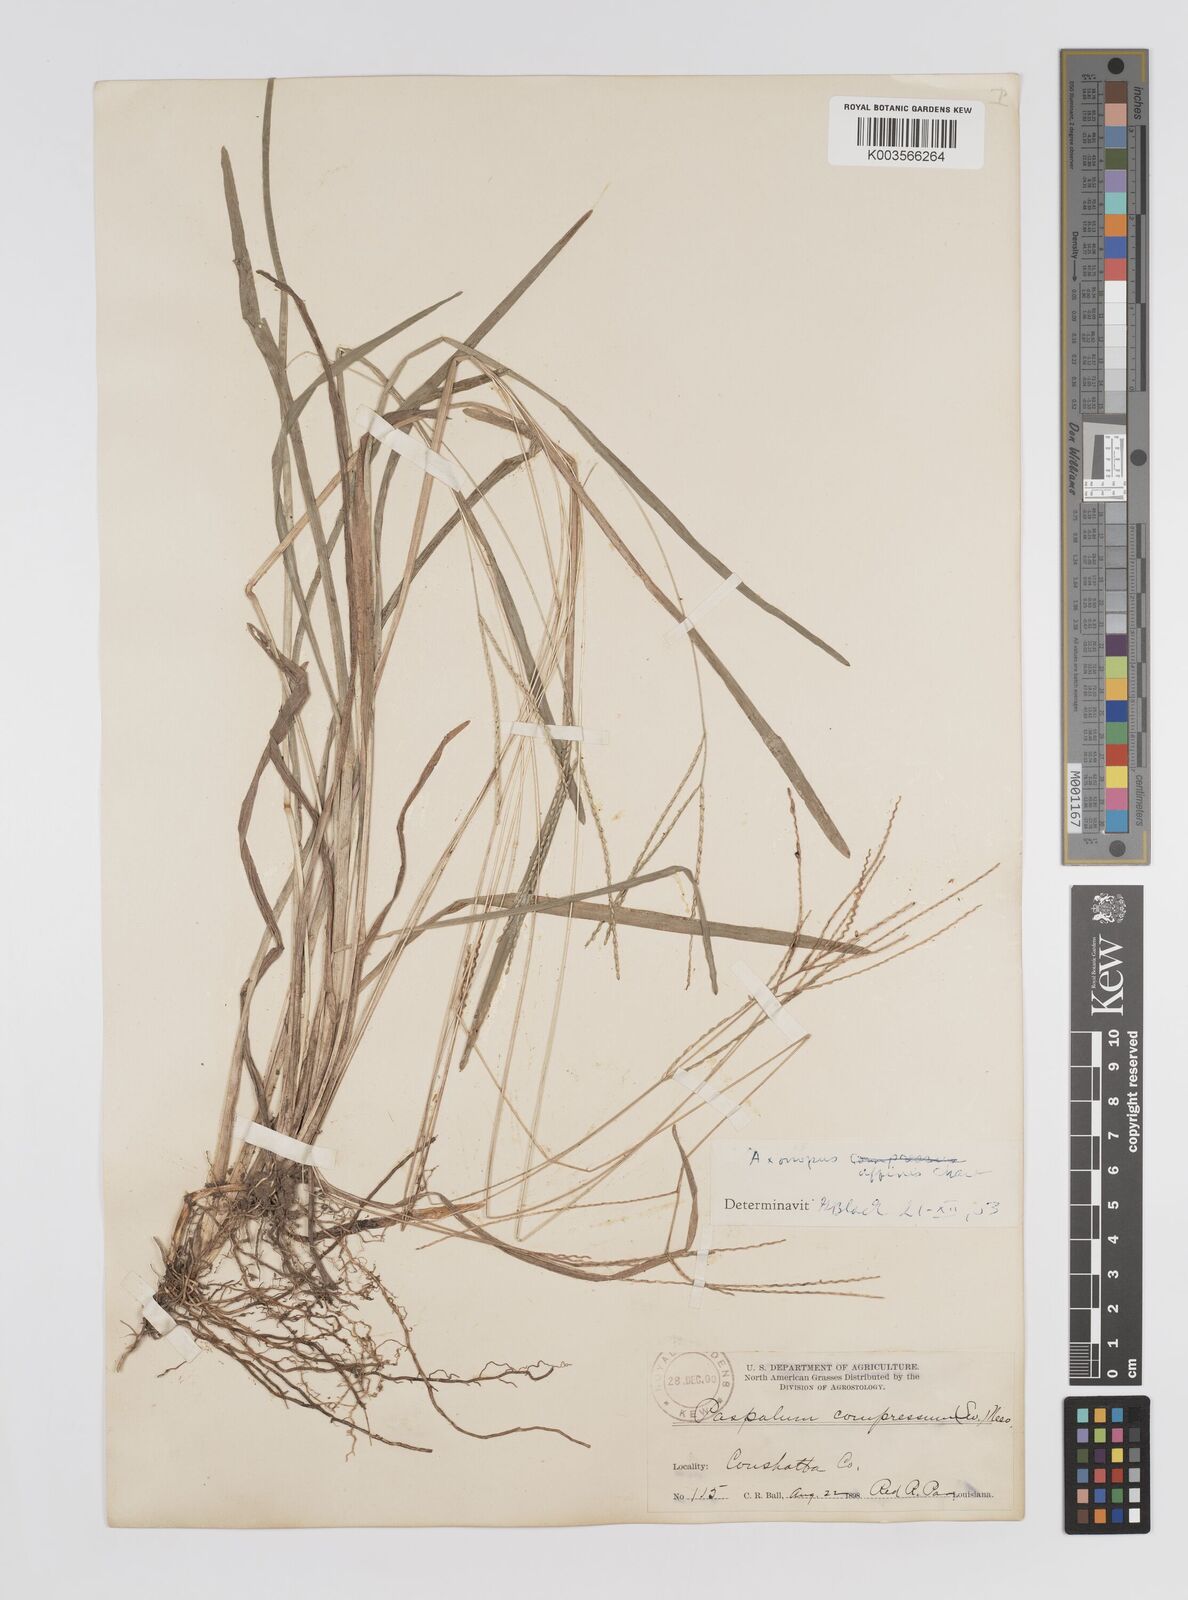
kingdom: Plantae
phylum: Tracheophyta
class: Liliopsida
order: Poales
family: Poaceae
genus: Axonopus
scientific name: Axonopus fissifolius
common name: Common carpetgrass
